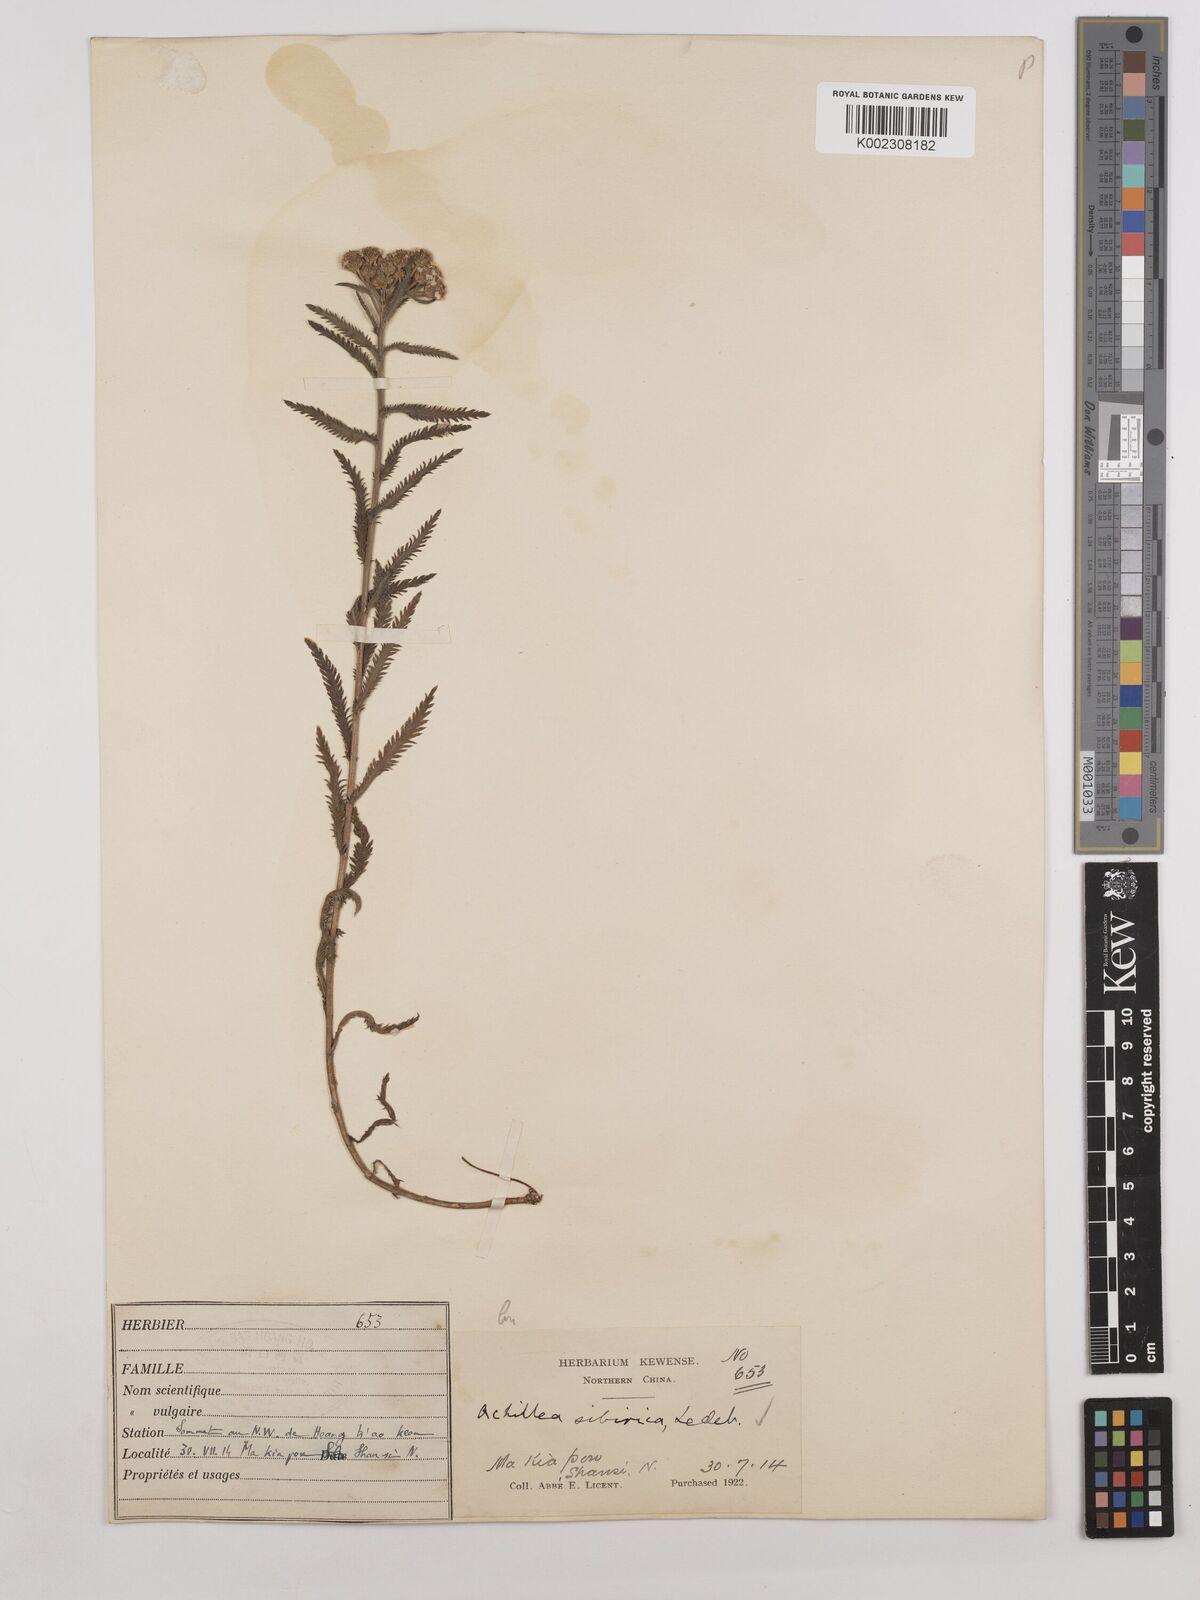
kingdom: Plantae
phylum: Tracheophyta
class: Magnoliopsida
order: Asterales
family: Asteraceae
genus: Achillea
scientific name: Achillea alpina
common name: Siberian yarrow
